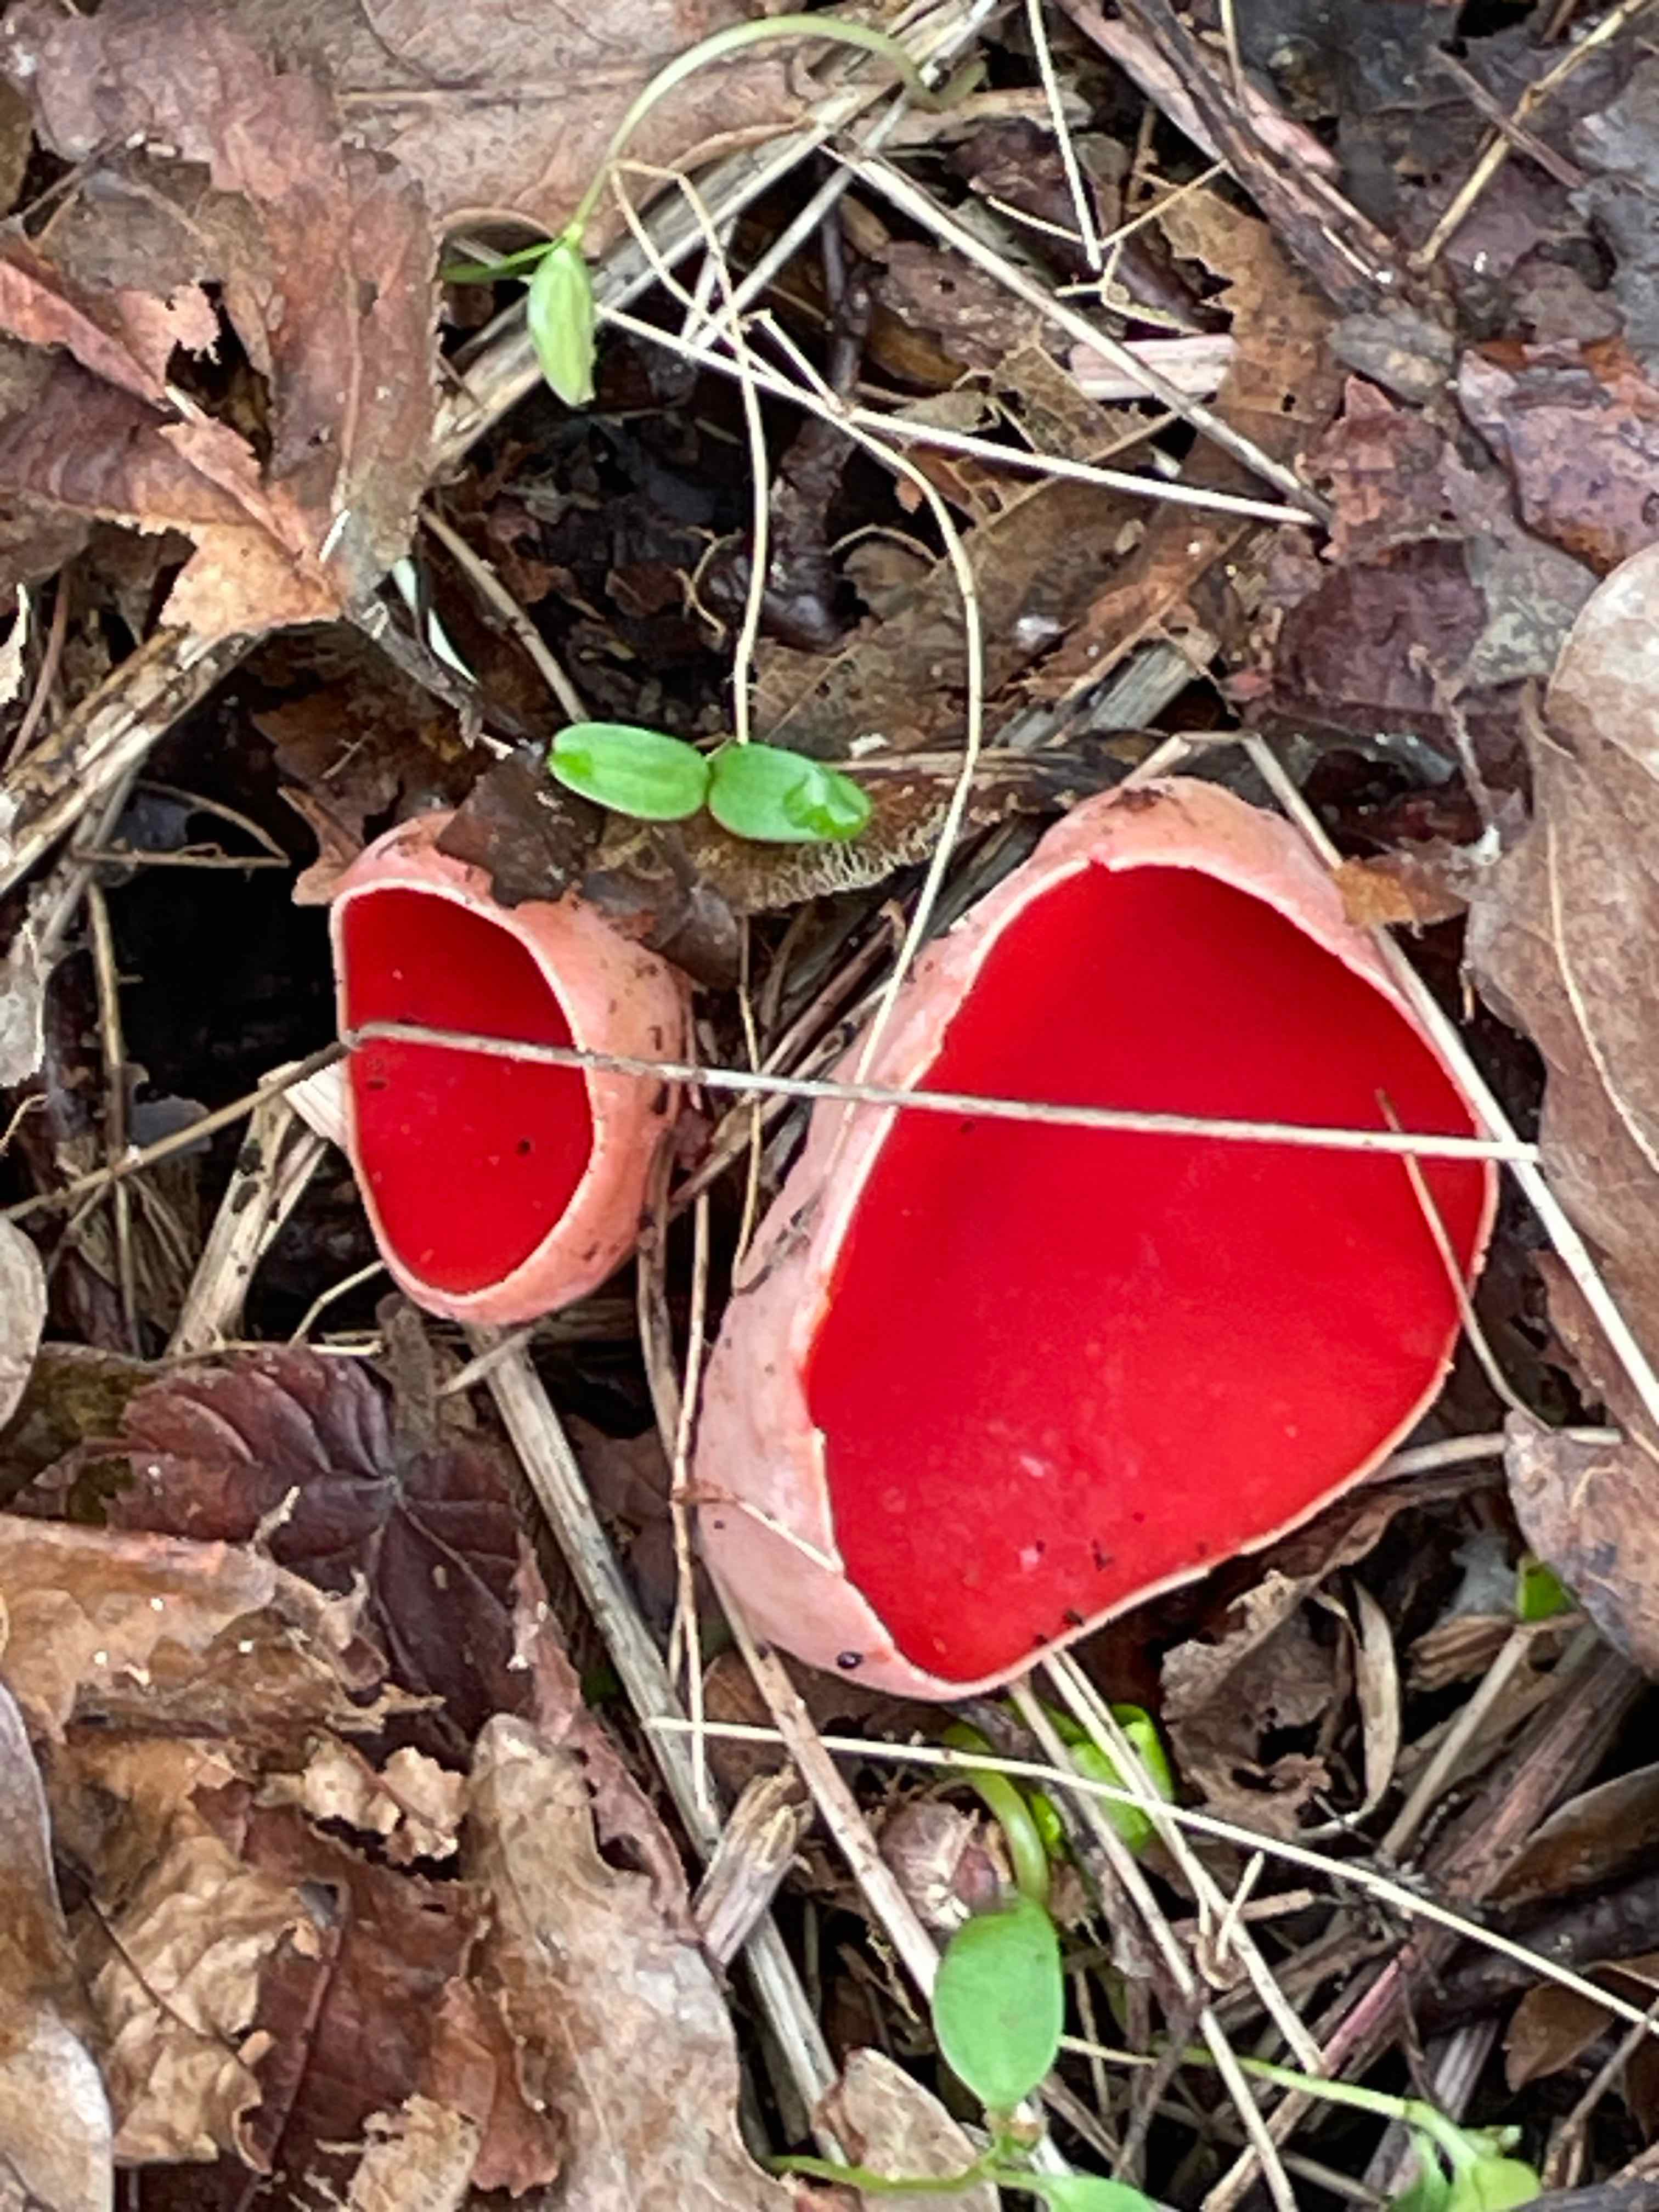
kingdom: Fungi
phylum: Ascomycota
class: Pezizomycetes
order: Pezizales
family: Sarcoscyphaceae
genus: Sarcoscypha
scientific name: Sarcoscypha austriaca
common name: krølhåret pragtbæger
